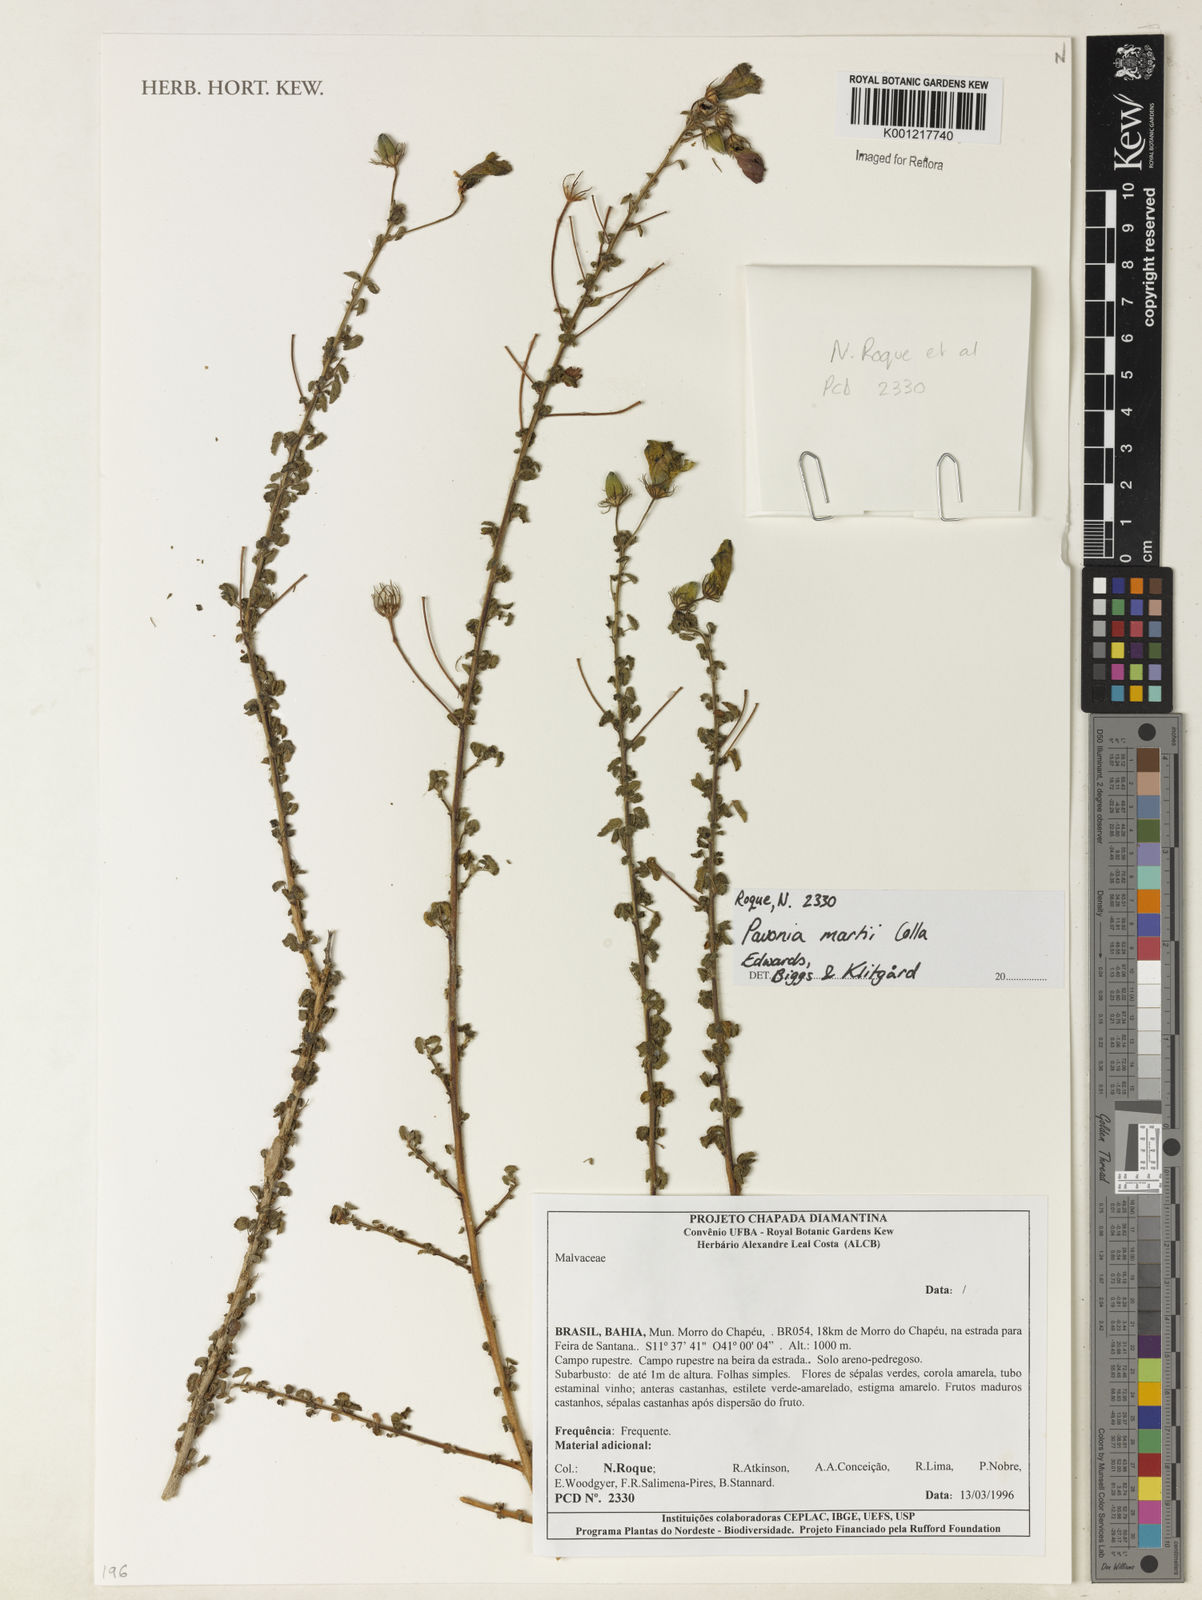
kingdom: Plantae
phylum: Tracheophyta
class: Magnoliopsida
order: Malvales
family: Malvaceae
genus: Pavonia
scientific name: Pavonia martii
